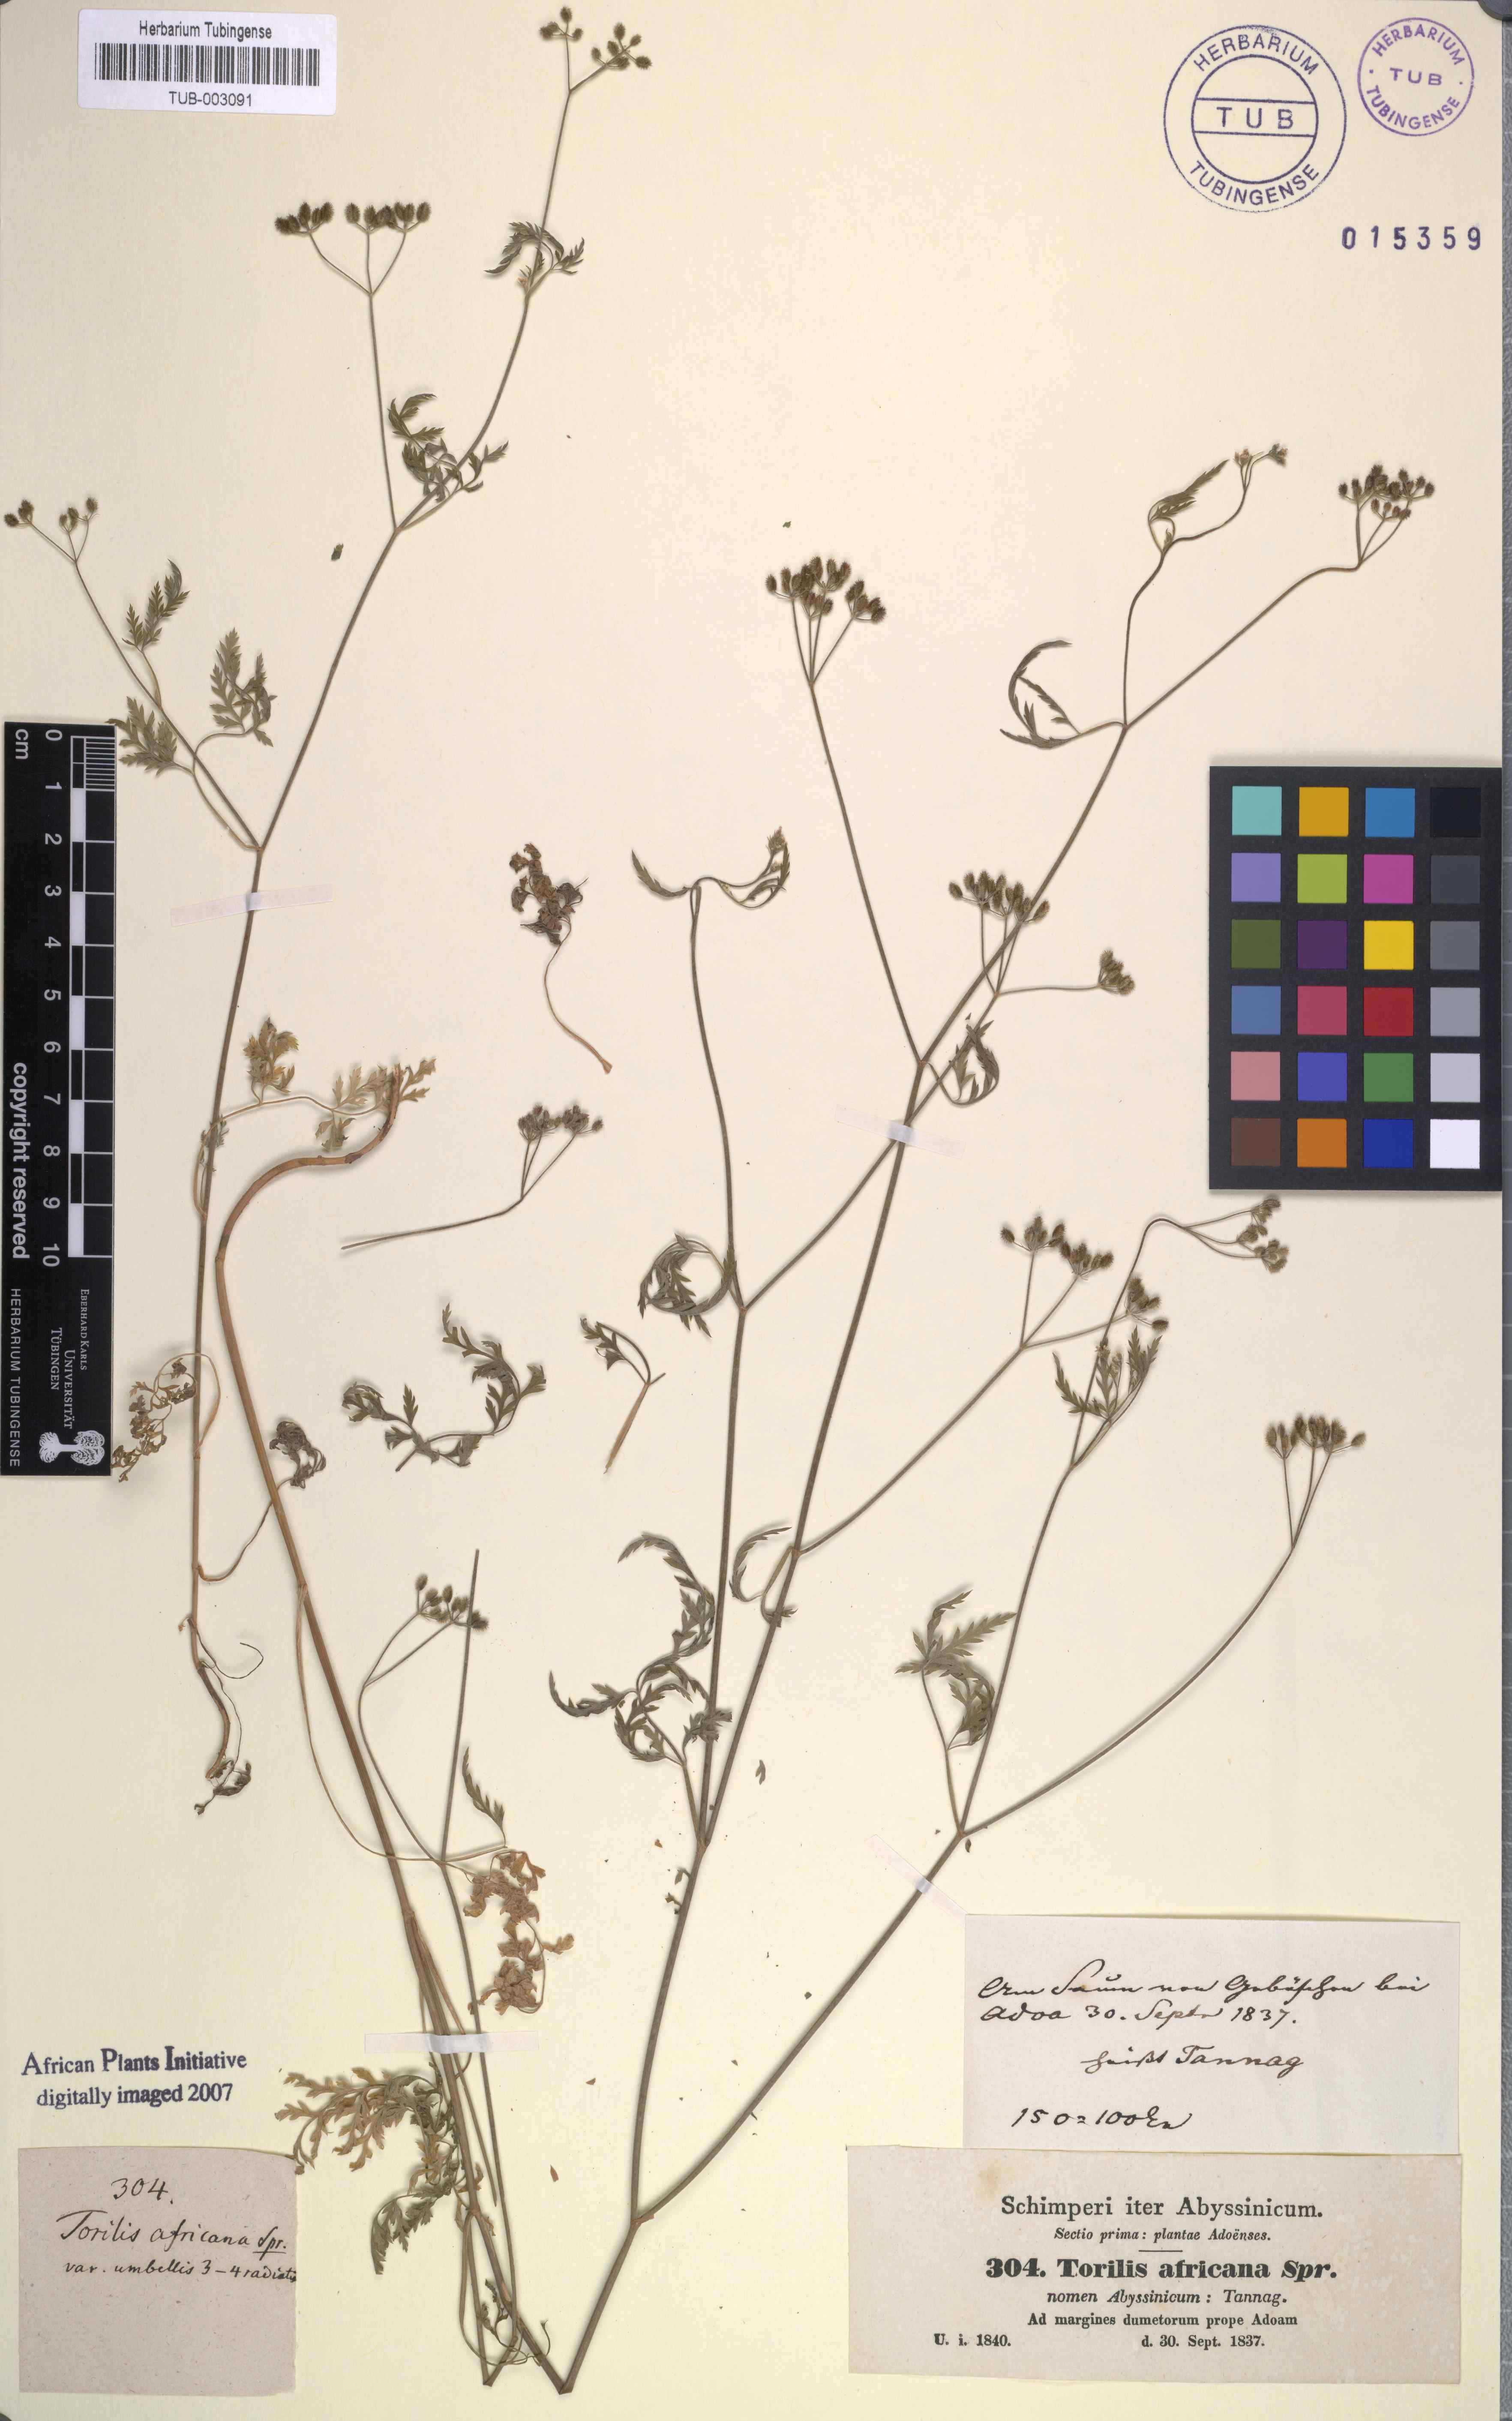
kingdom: Plantae
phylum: Tracheophyta
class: Magnoliopsida
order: Apiales
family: Apiaceae
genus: Torilis
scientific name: Torilis africana
